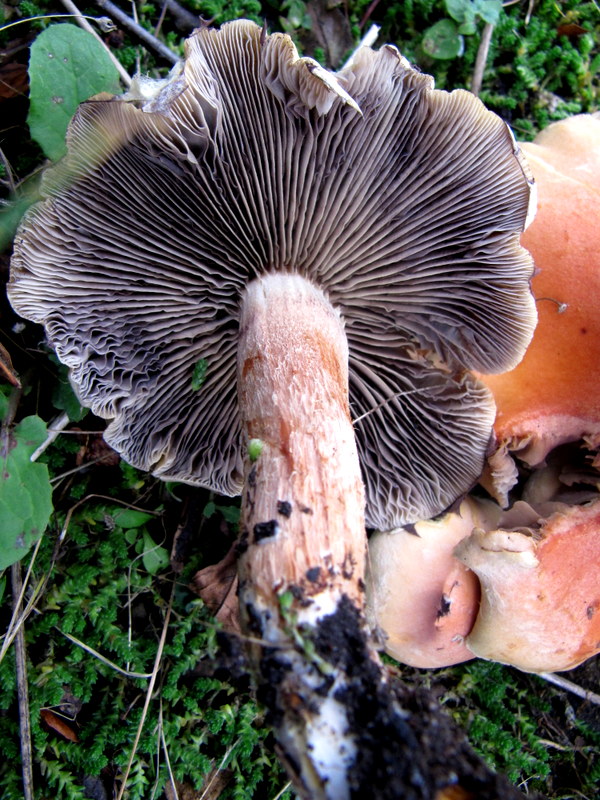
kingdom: Fungi
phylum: Basidiomycota
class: Agaricomycetes
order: Agaricales
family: Strophariaceae
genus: Hypholoma
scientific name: Hypholoma lateritium
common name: teglrød svovlhat
